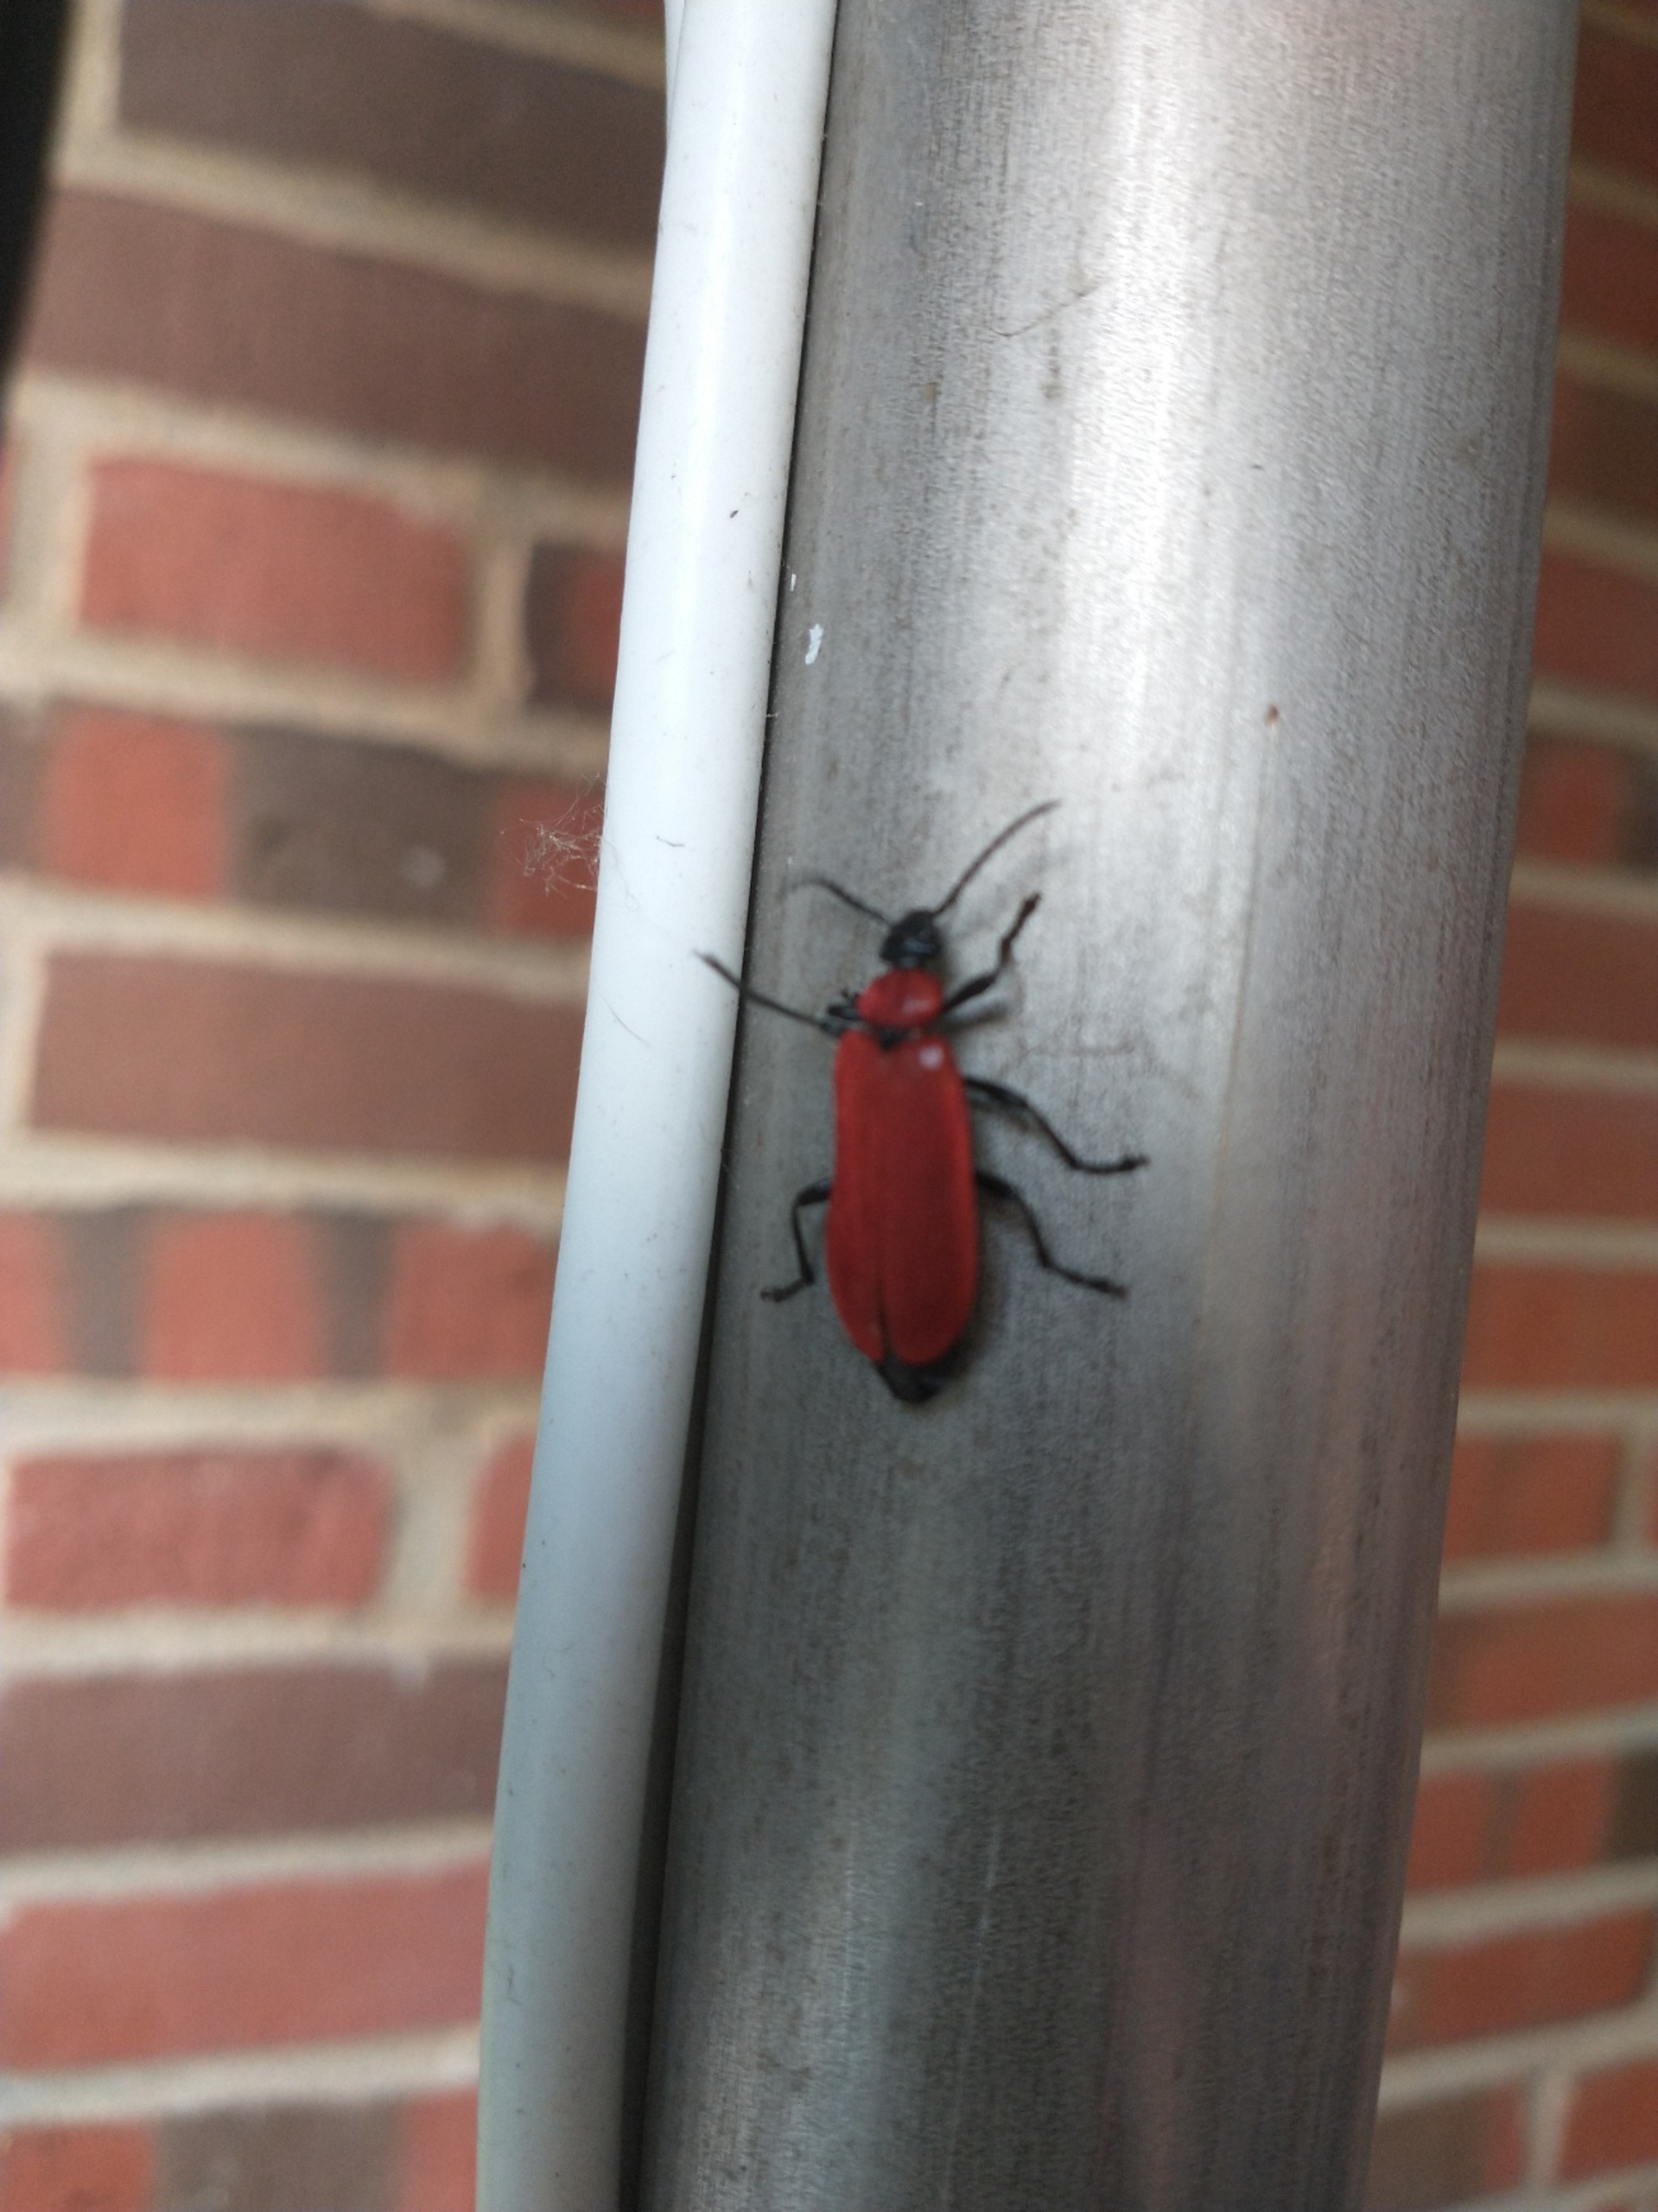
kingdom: Animalia
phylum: Arthropoda
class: Insecta
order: Coleoptera
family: Pyrochroidae
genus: Pyrochroa
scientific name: Pyrochroa coccinea
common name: Sorthovedet kardinalbille
